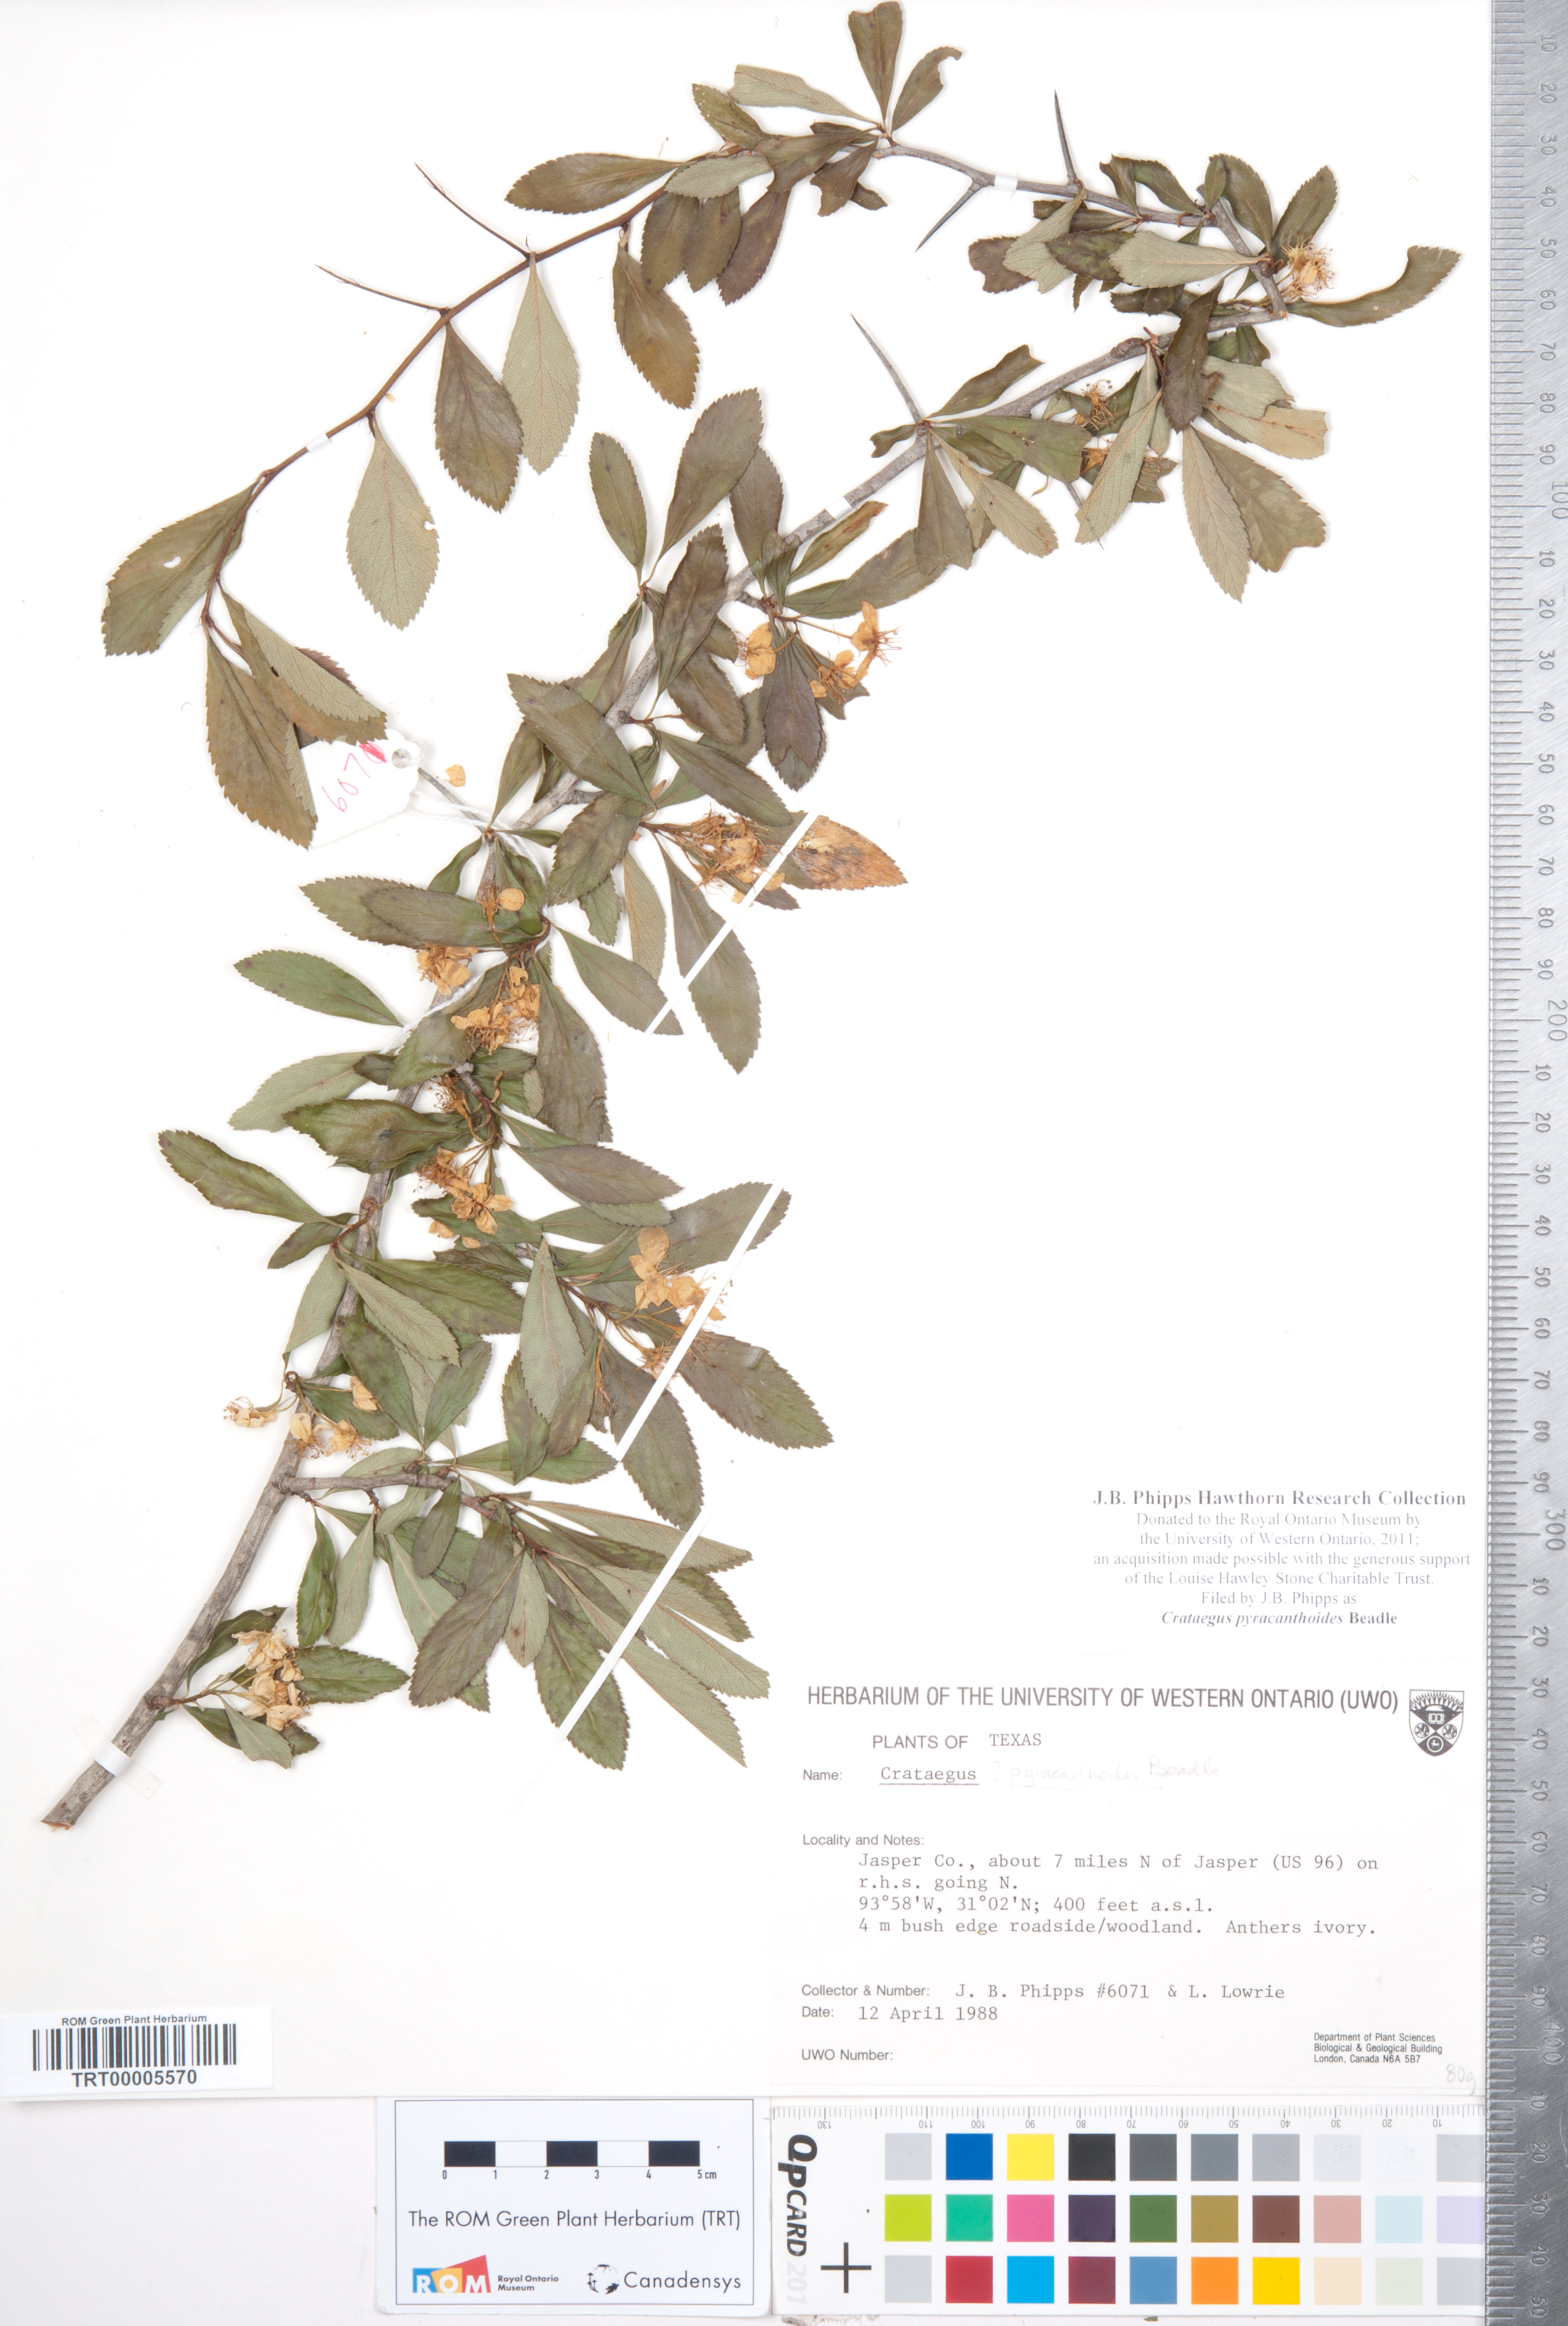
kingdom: Plantae
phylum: Tracheophyta
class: Magnoliopsida
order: Rosales
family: Rosaceae
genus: Crataegus
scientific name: Crataegus crus-galli
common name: Cockspurthorn
